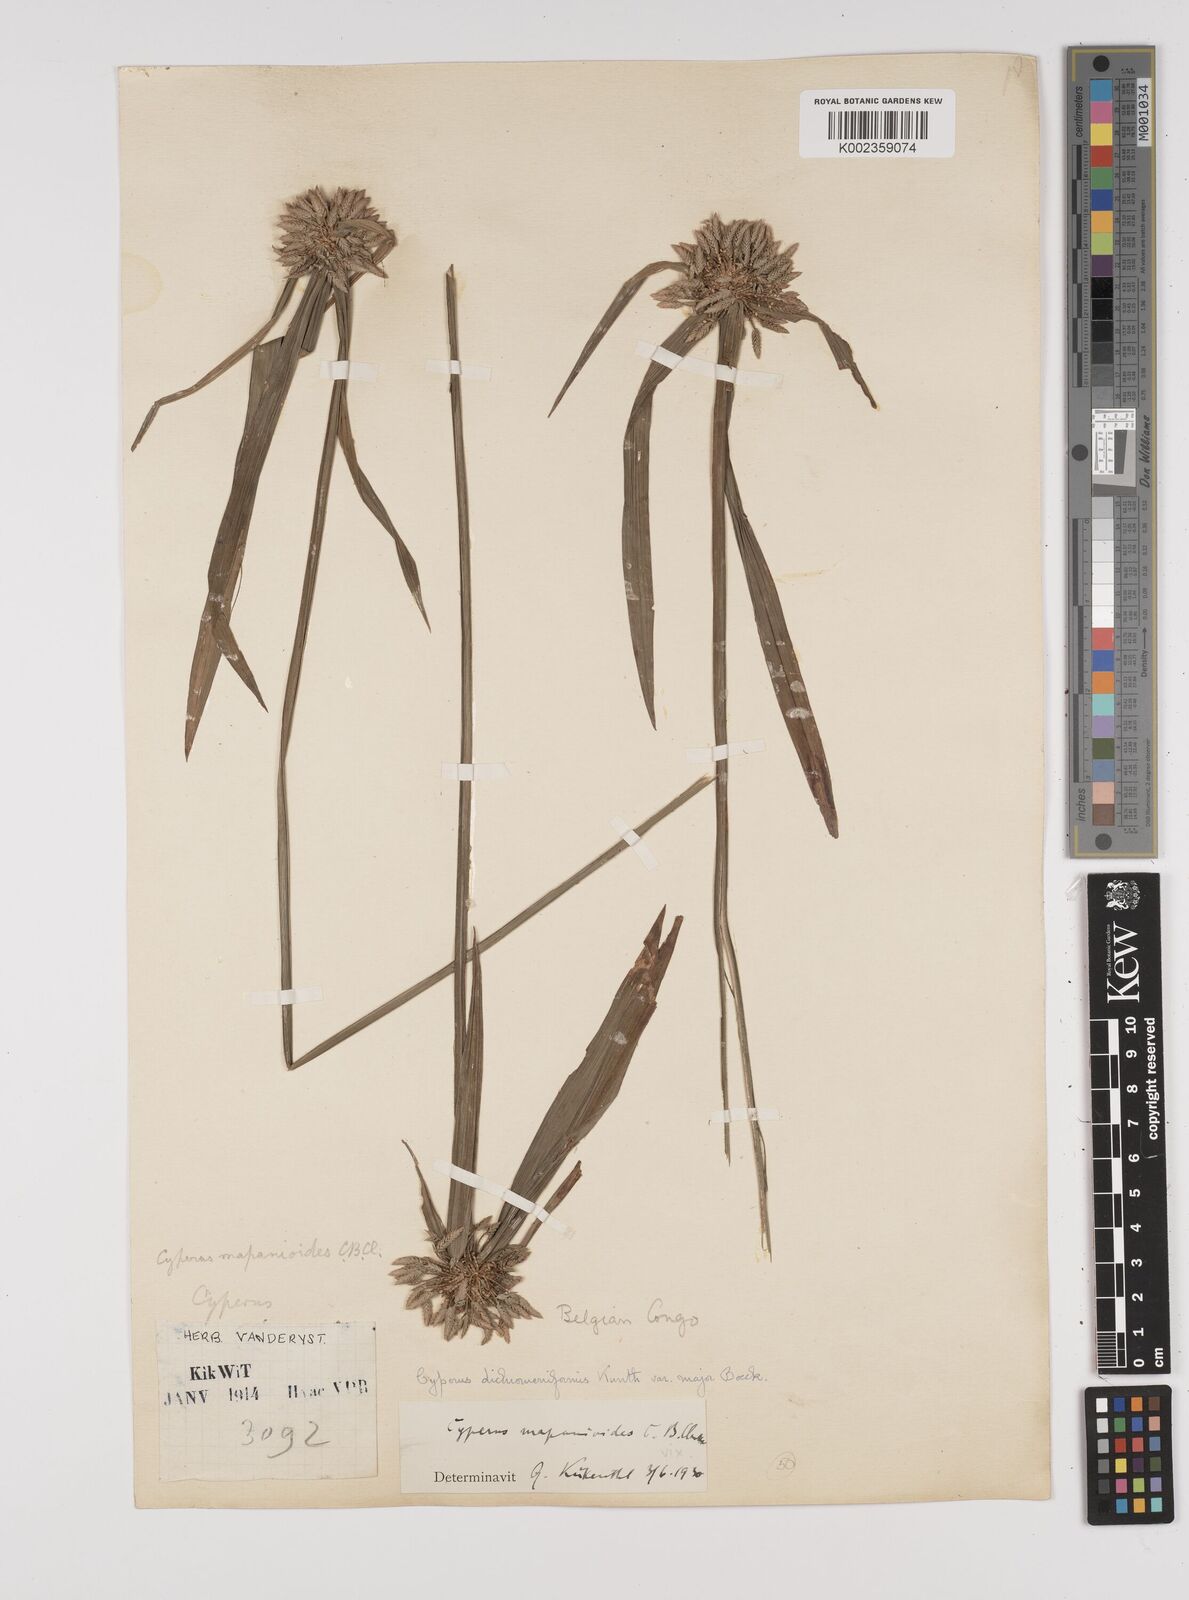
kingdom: Plantae
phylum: Tracheophyta
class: Liliopsida
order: Poales
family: Cyperaceae
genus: Cyperus
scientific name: Cyperus mapanioides
